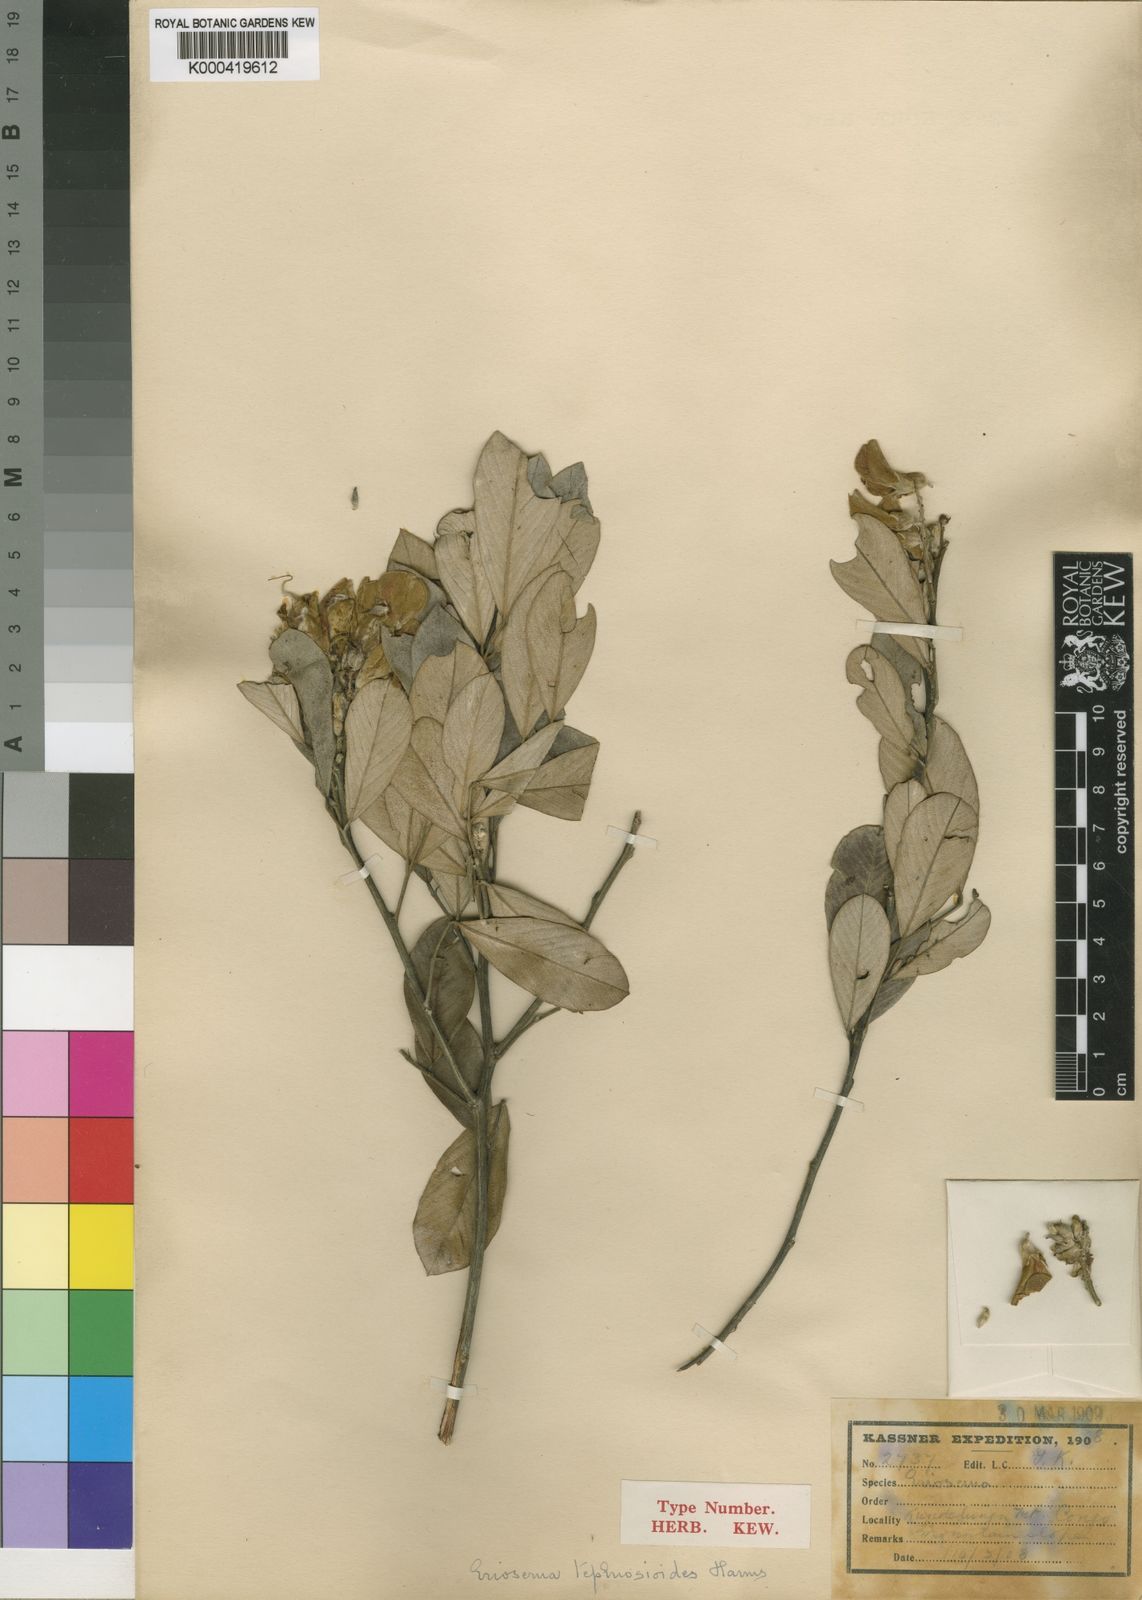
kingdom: Plantae
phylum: Tracheophyta
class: Magnoliopsida
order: Fabales
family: Fabaceae
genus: Eriosema
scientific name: Eriosema tephrosioides
